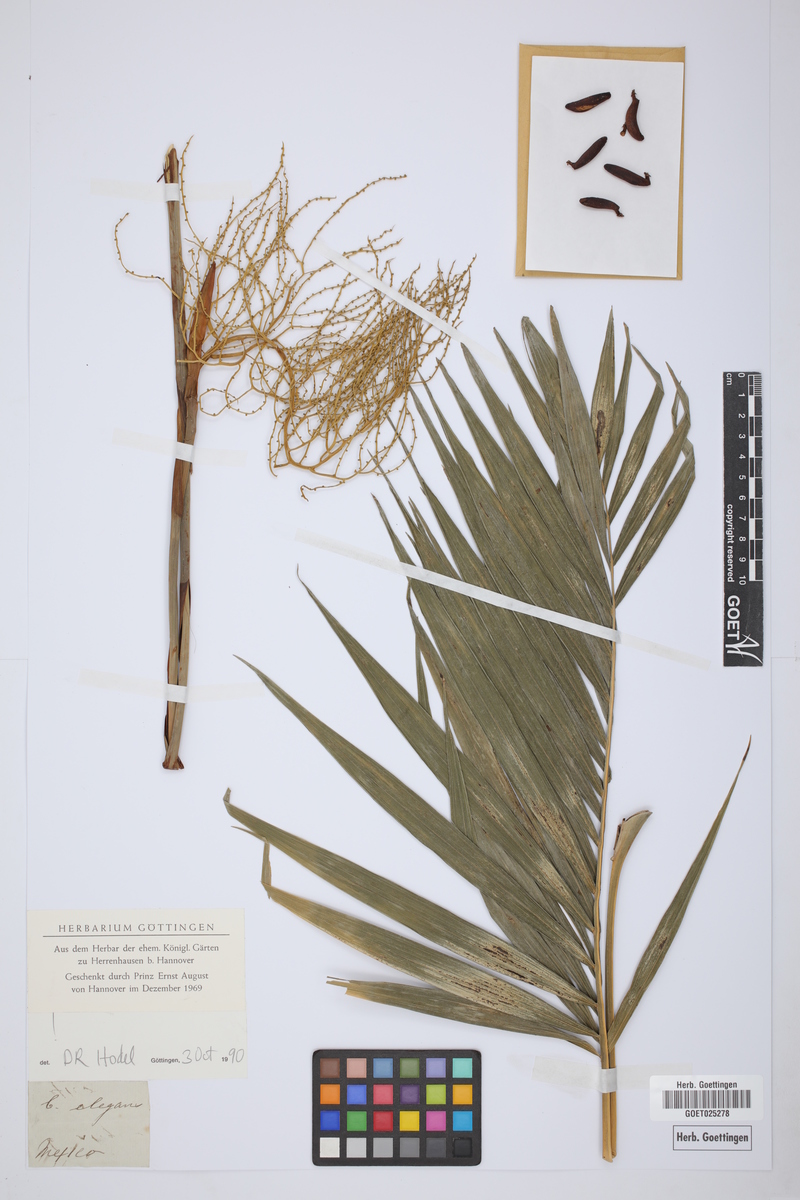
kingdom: Plantae
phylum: Tracheophyta
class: Liliopsida
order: Arecales
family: Arecaceae
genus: Chamaedorea
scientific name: Chamaedorea elegans
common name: Good-luck palm
